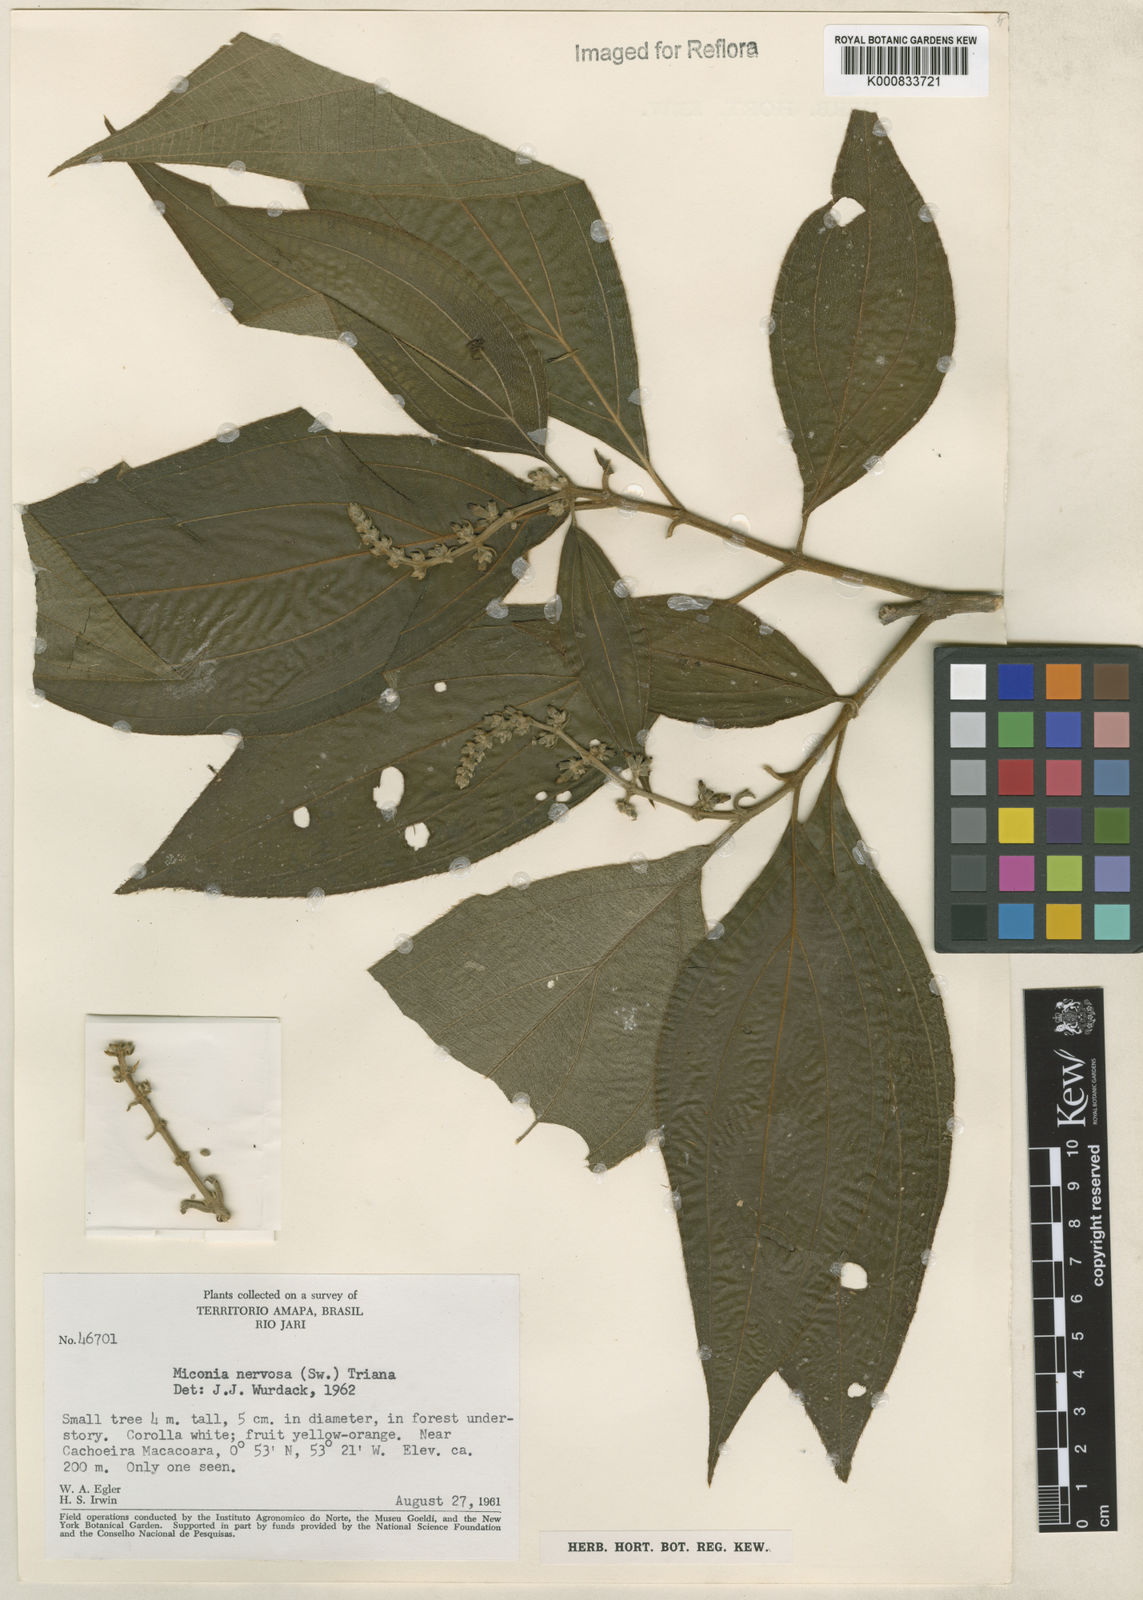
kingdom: Plantae
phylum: Tracheophyta
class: Magnoliopsida
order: Myrtales
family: Melastomataceae
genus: Miconia
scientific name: Miconia nervosa
